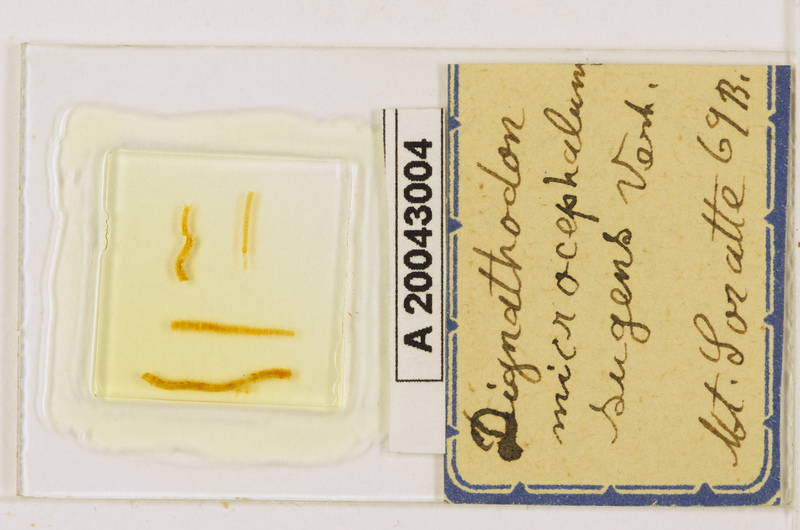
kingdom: Animalia
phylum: Arthropoda
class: Chilopoda
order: Geophilomorpha
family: Dignathodontidae
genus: Dignathodon
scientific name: Dignathodon microcephalus
